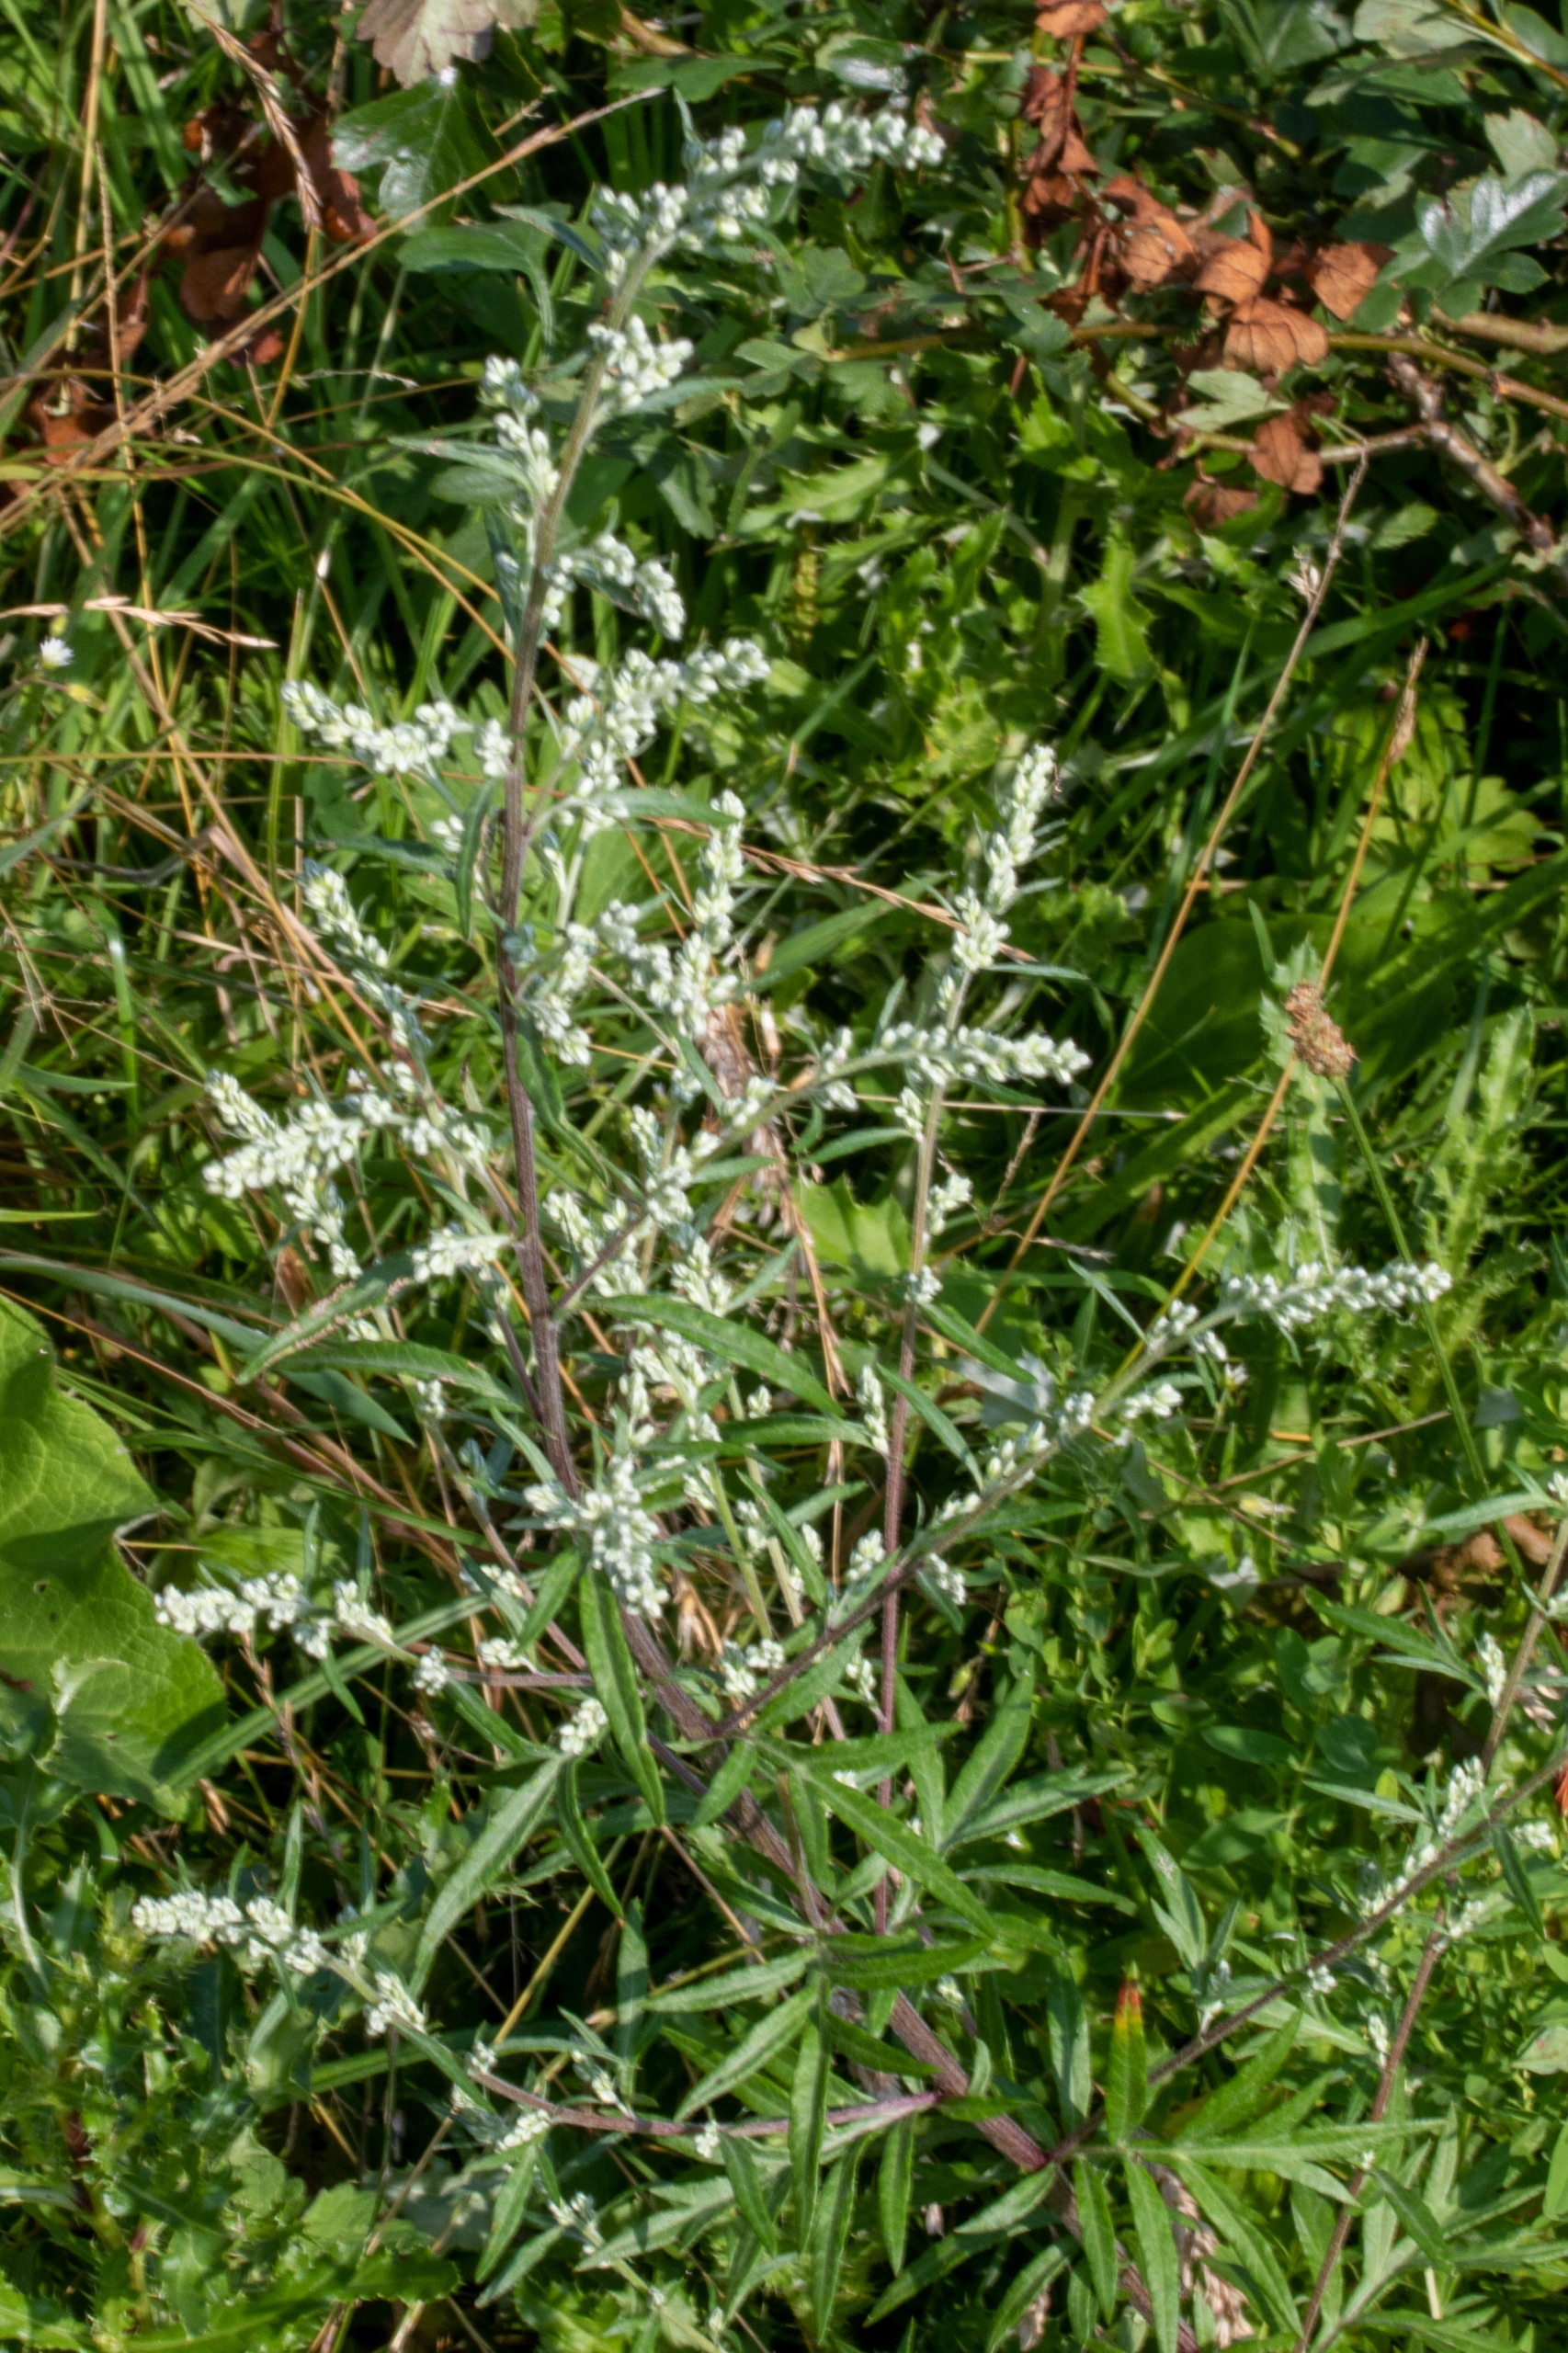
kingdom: Plantae
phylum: Tracheophyta
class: Magnoliopsida
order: Asterales
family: Asteraceae
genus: Artemisia
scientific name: Artemisia vulgaris
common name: Grå-bynke
